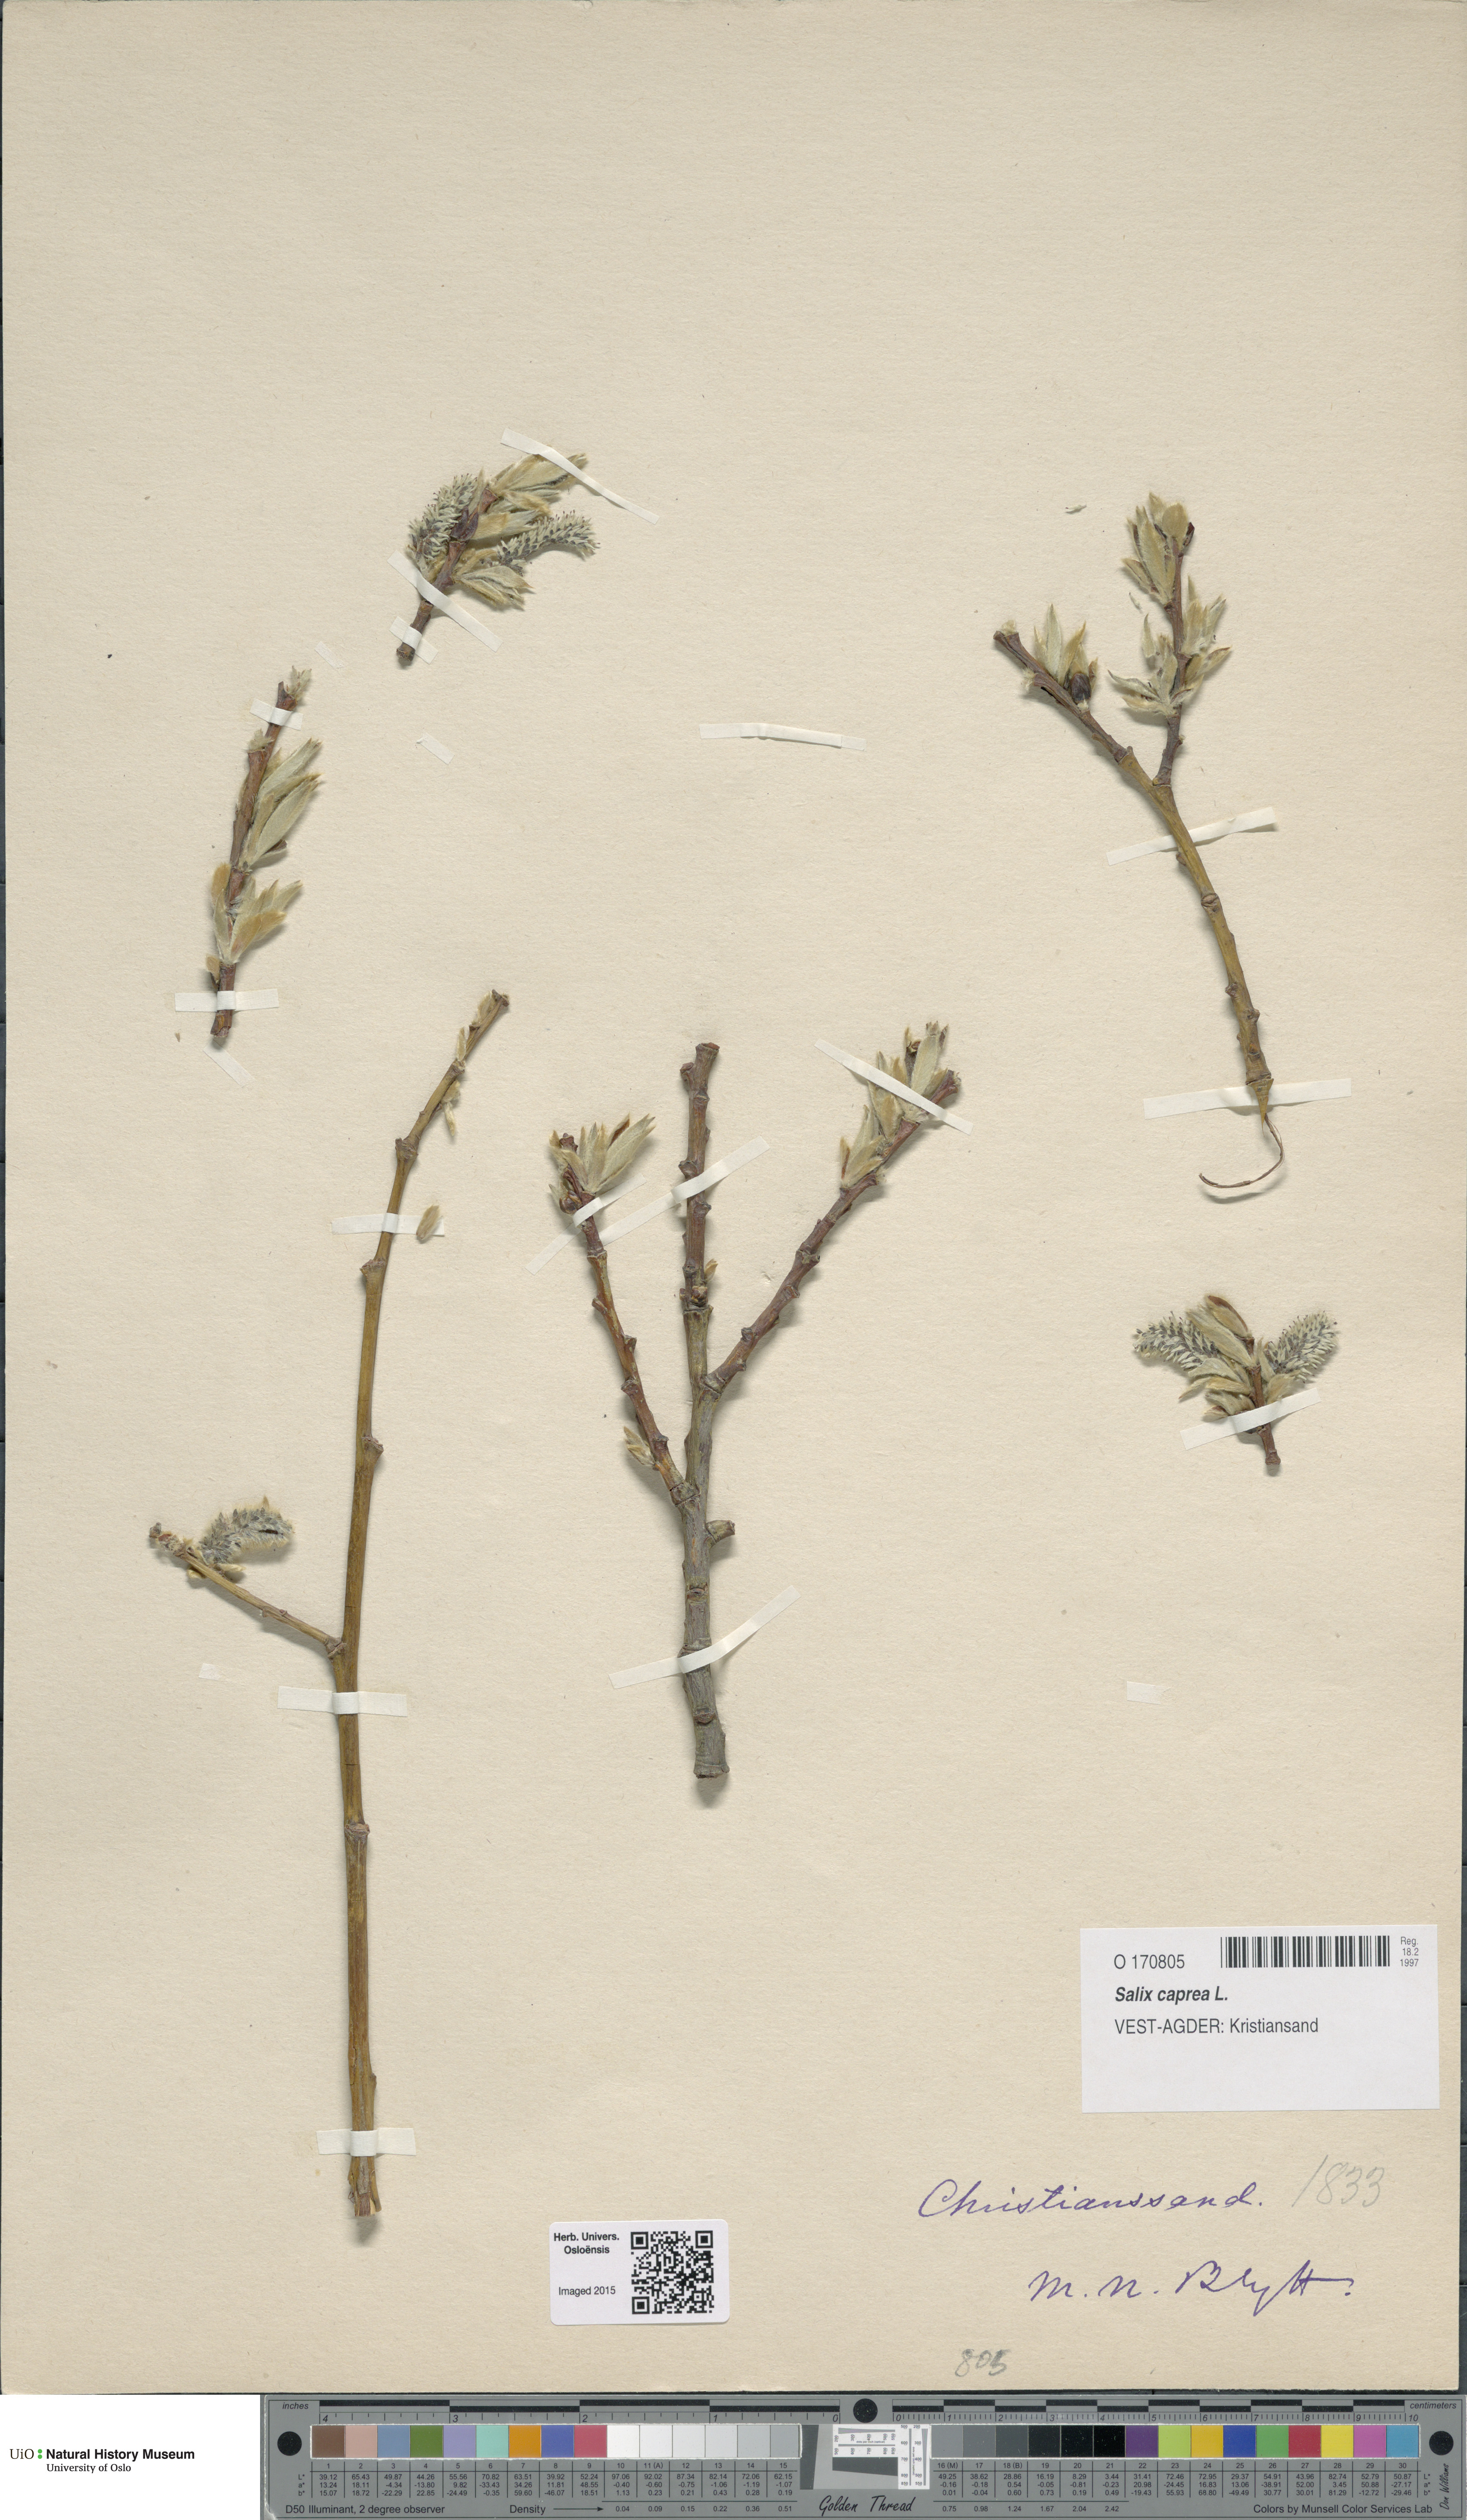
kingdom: Plantae
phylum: Tracheophyta
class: Magnoliopsida
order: Malpighiales
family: Salicaceae
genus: Salix
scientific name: Salix caprea
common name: Goat willow
